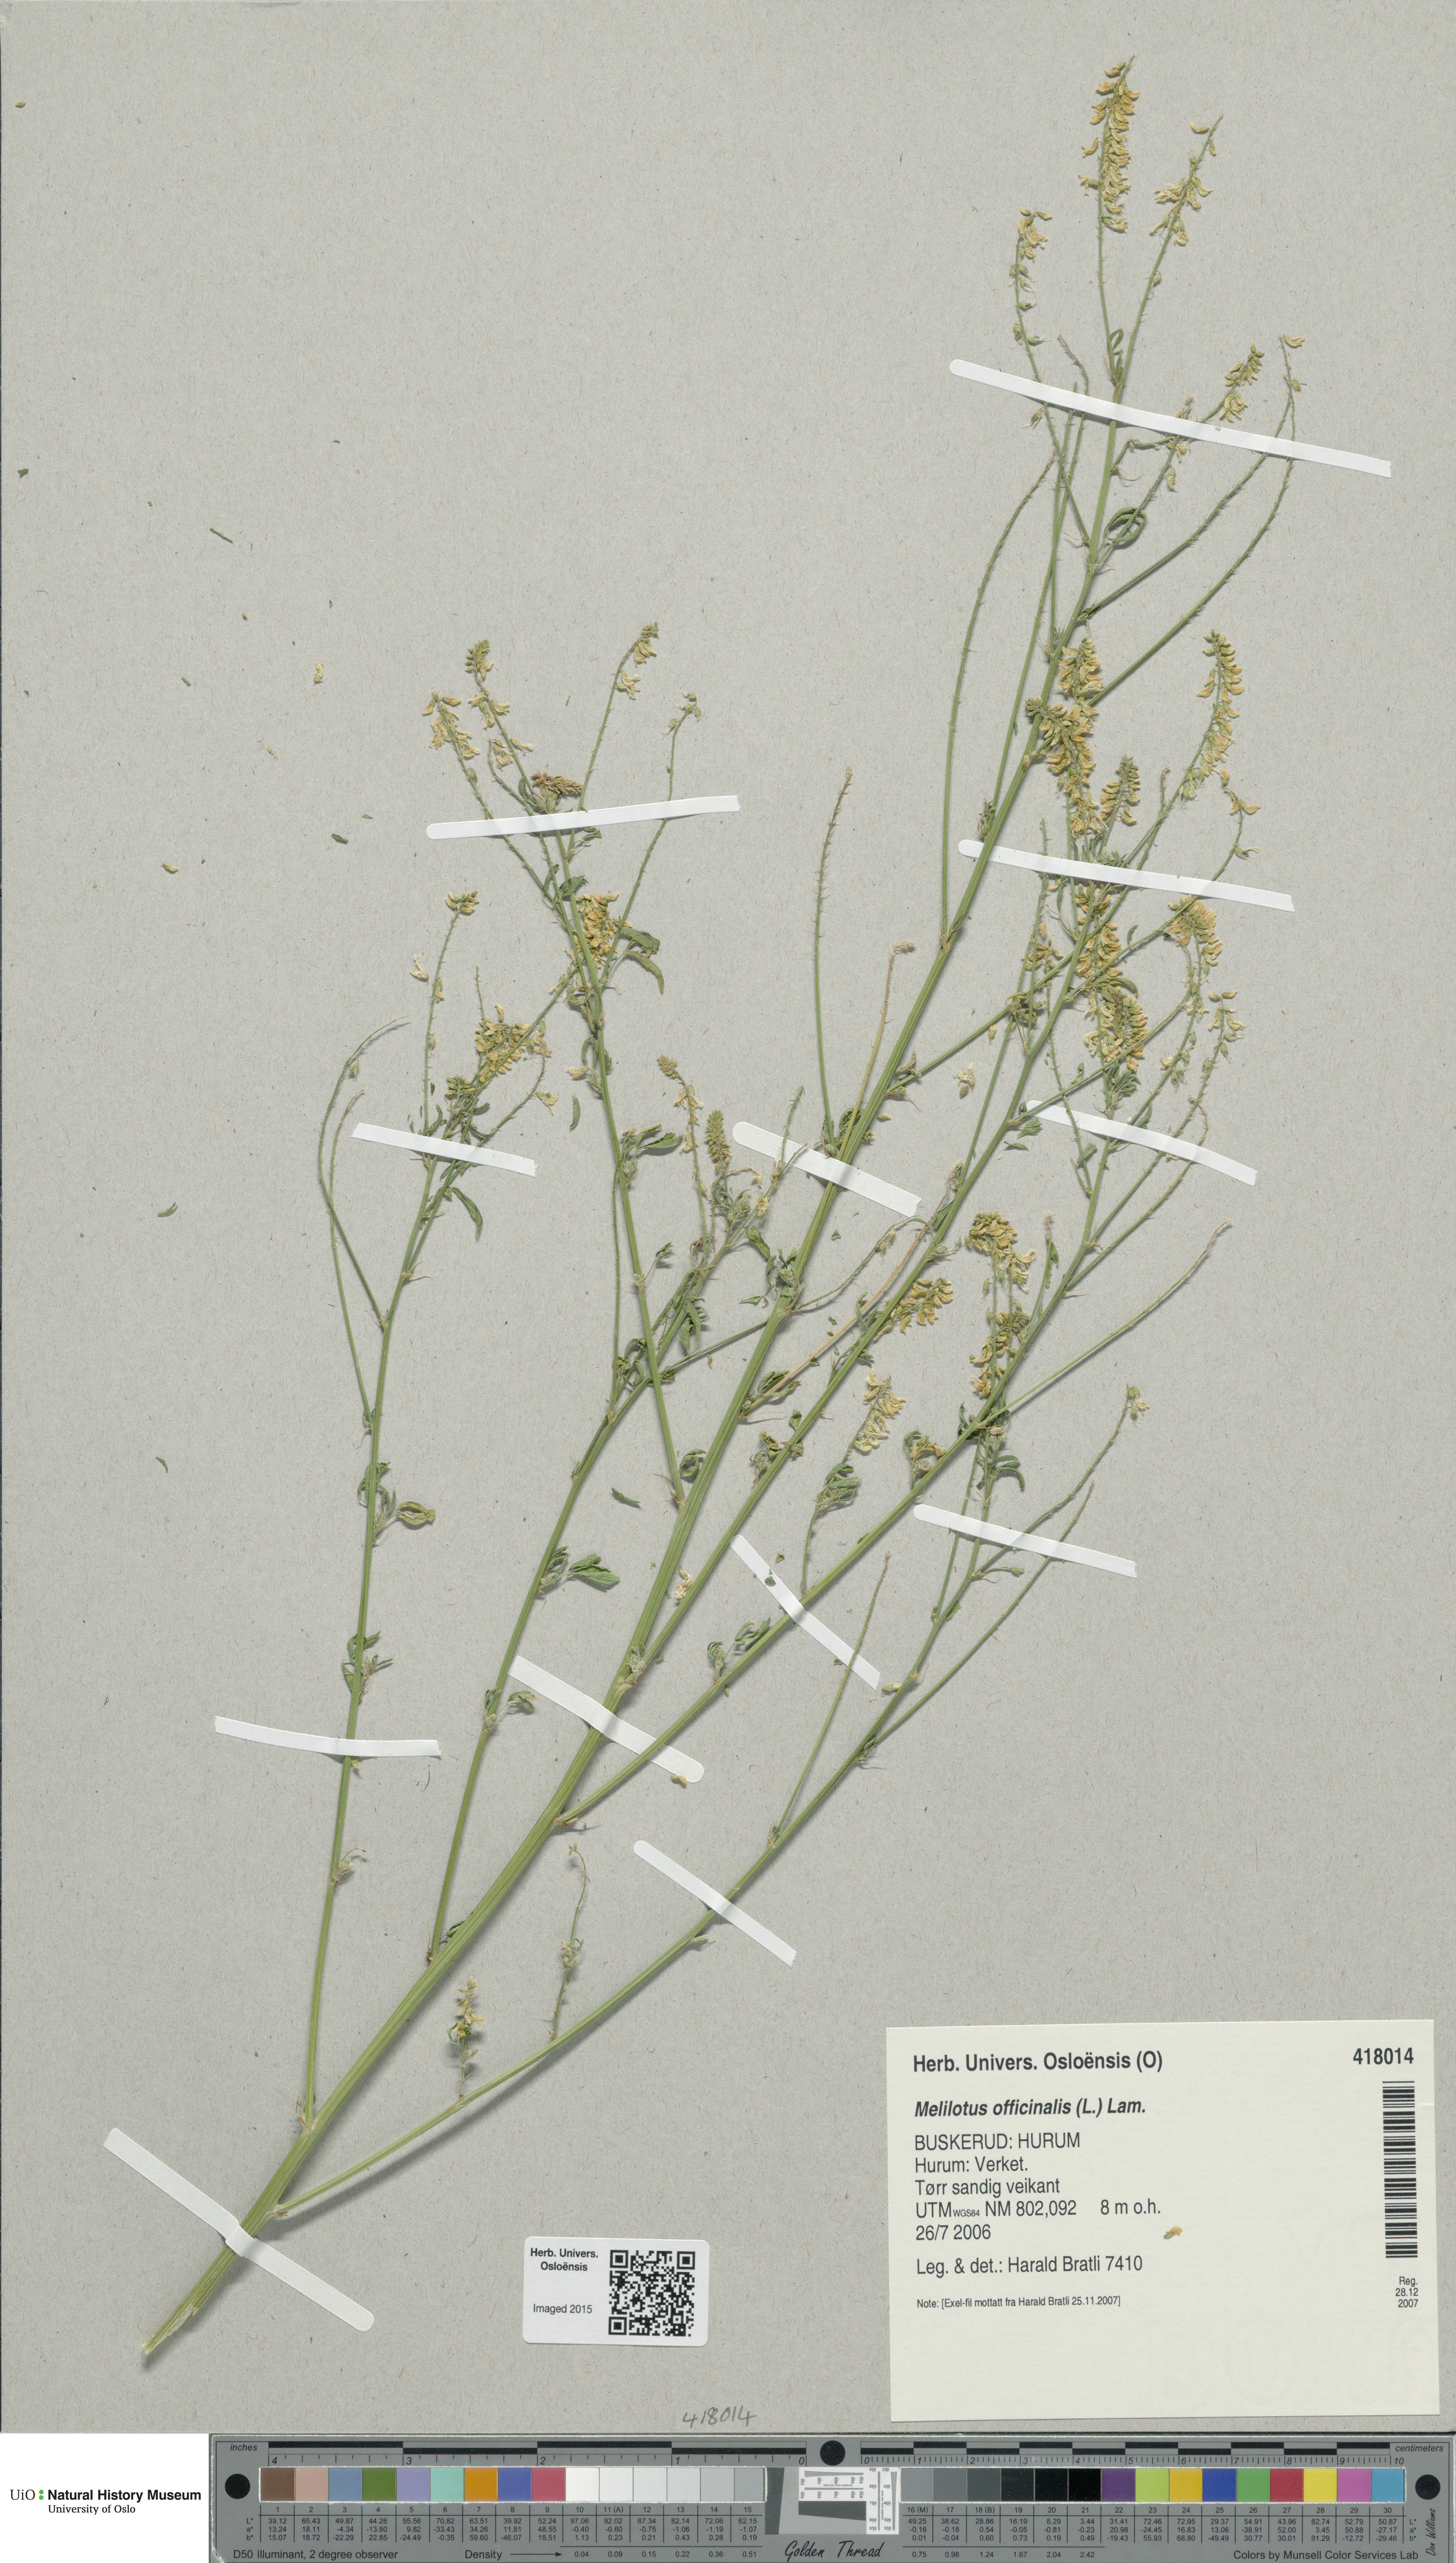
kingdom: Plantae
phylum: Tracheophyta
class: Magnoliopsida
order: Fabales
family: Fabaceae
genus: Melilotus
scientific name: Melilotus officinalis
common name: Sweetclover
